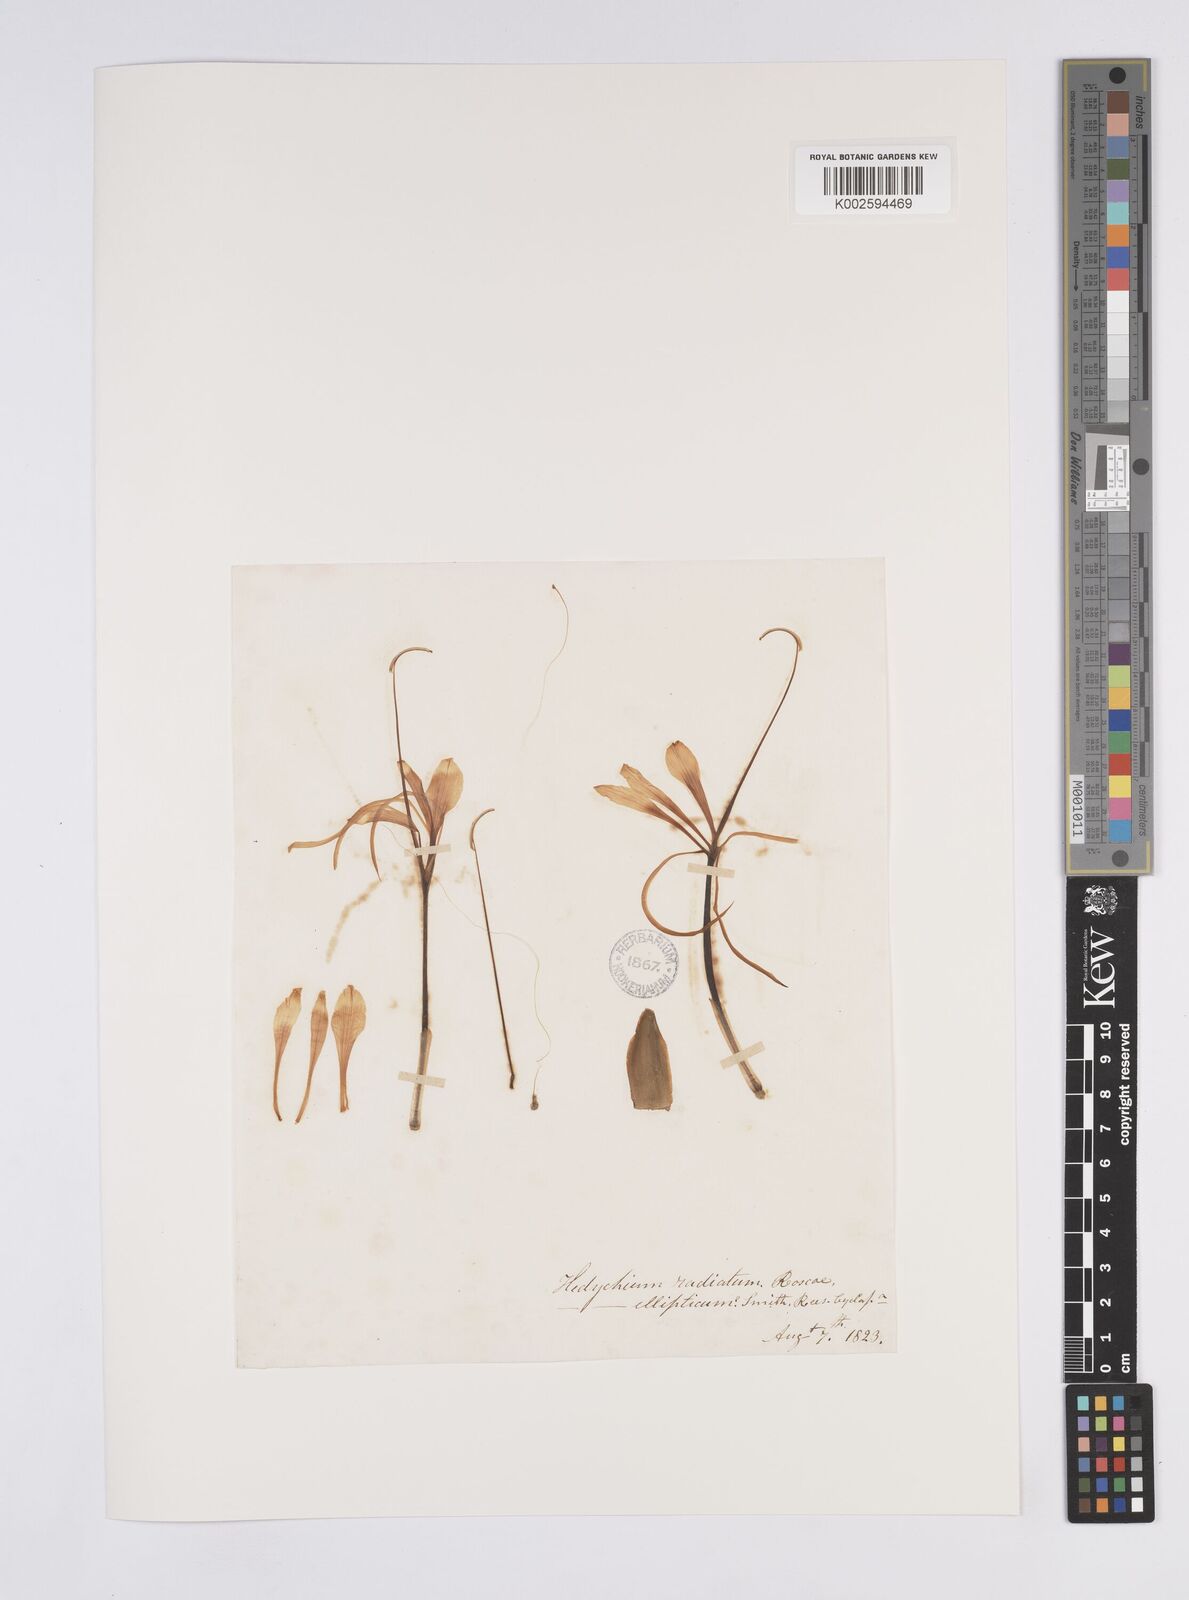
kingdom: Plantae
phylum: Tracheophyta
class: Liliopsida
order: Zingiberales
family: Zingiberaceae
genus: Hedychium
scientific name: Hedychium ellipticum
